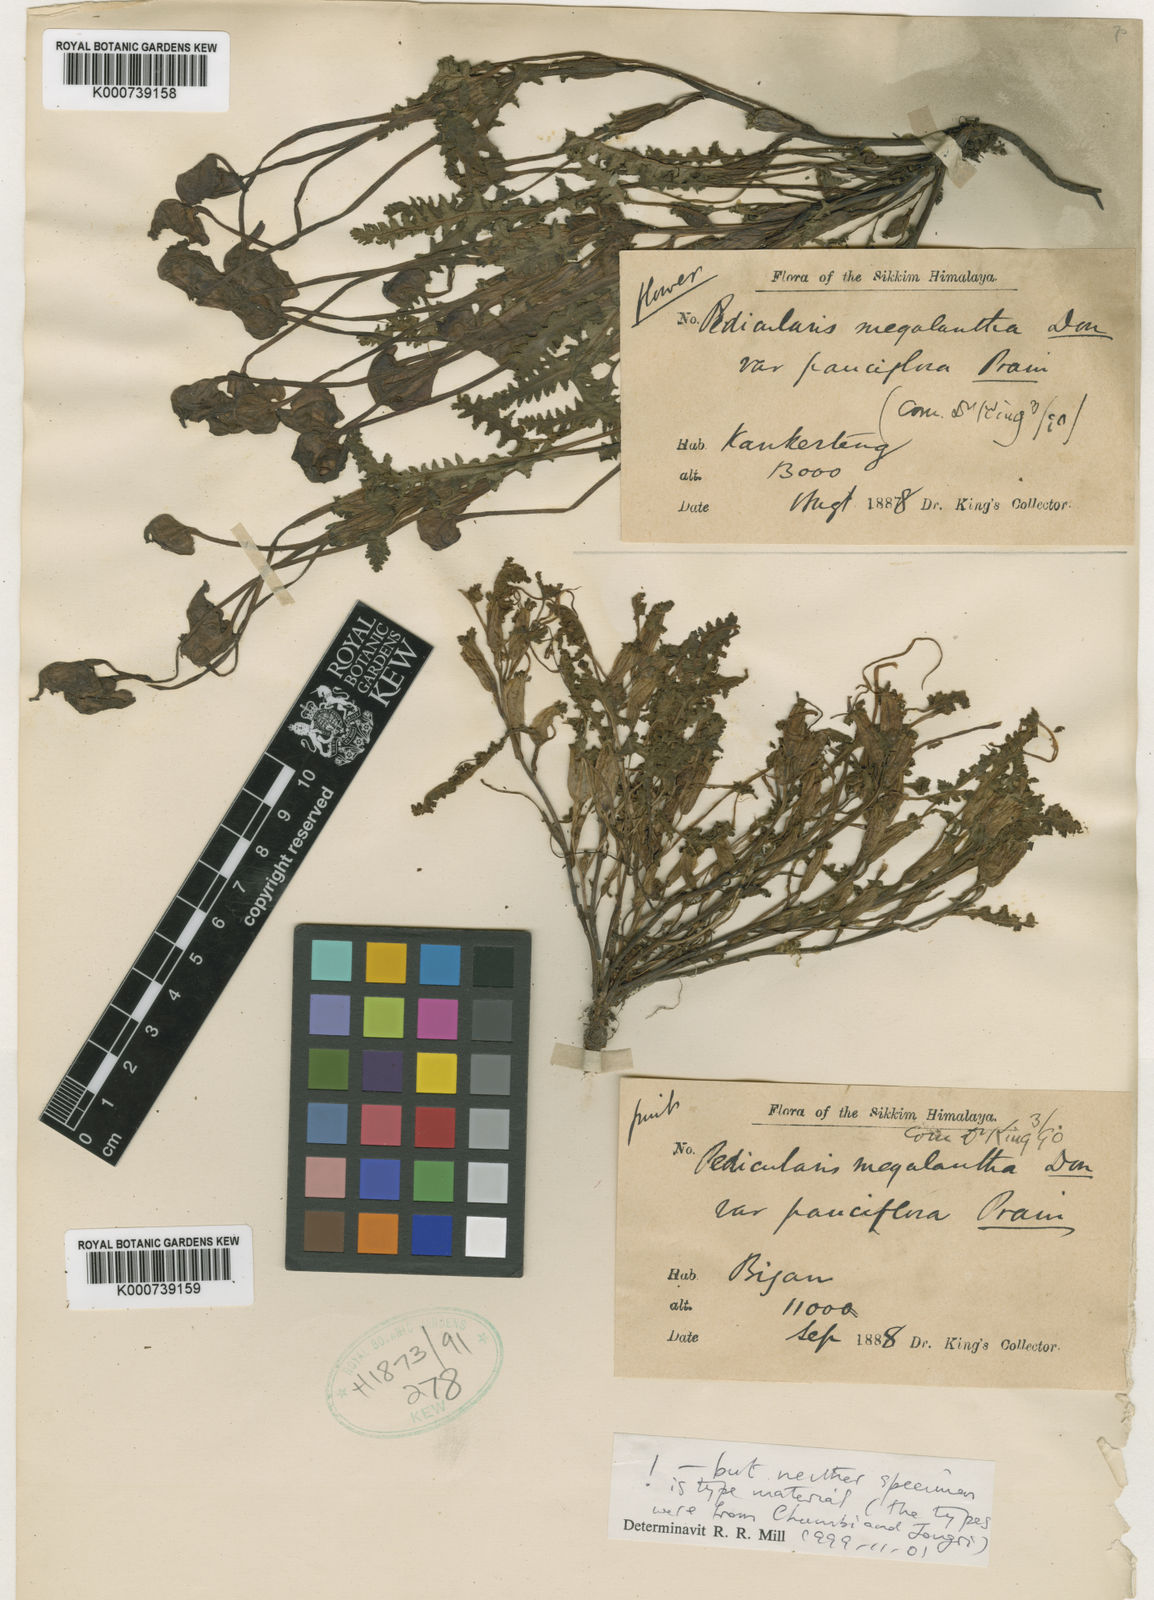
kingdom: Plantae
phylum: Tracheophyta
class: Magnoliopsida
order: Lamiales
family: Orobanchaceae
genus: Pedicularis
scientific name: Pedicularis megalantha
